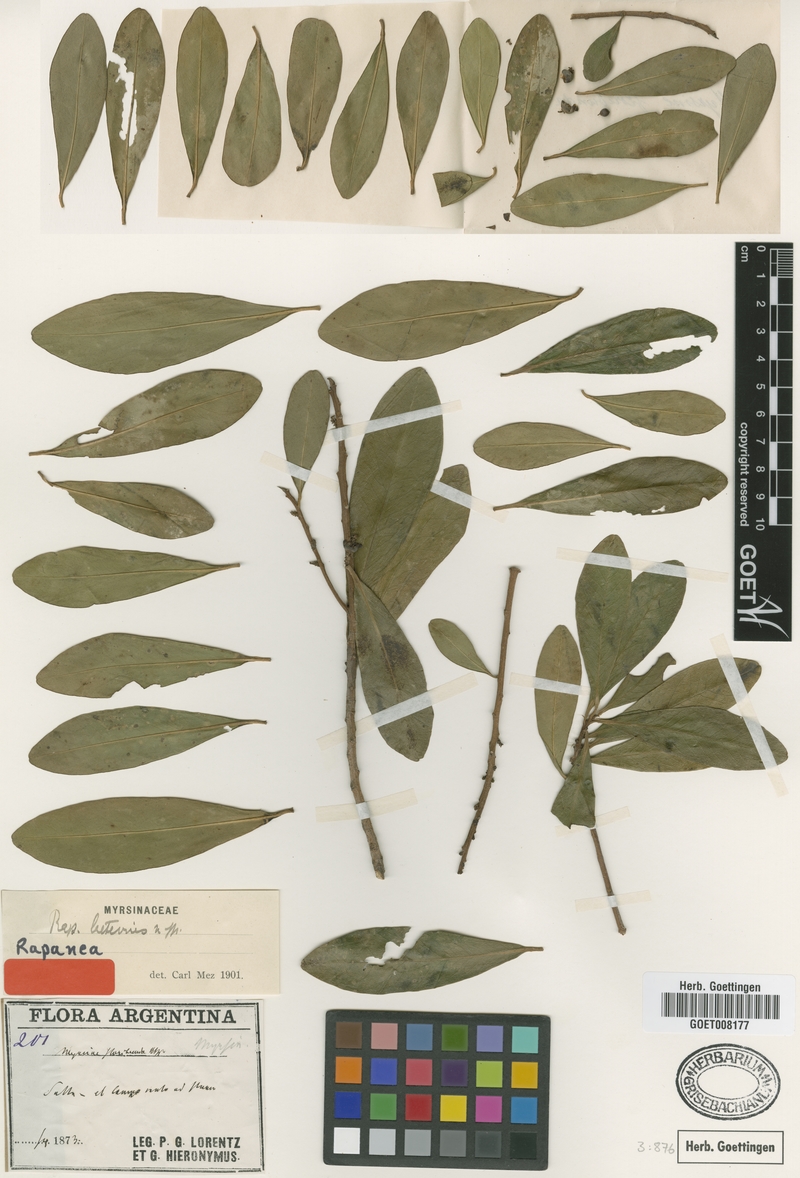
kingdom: Plantae
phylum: Tracheophyta
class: Magnoliopsida
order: Ericales
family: Primulaceae
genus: Myrsine
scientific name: Myrsine laetevirens
